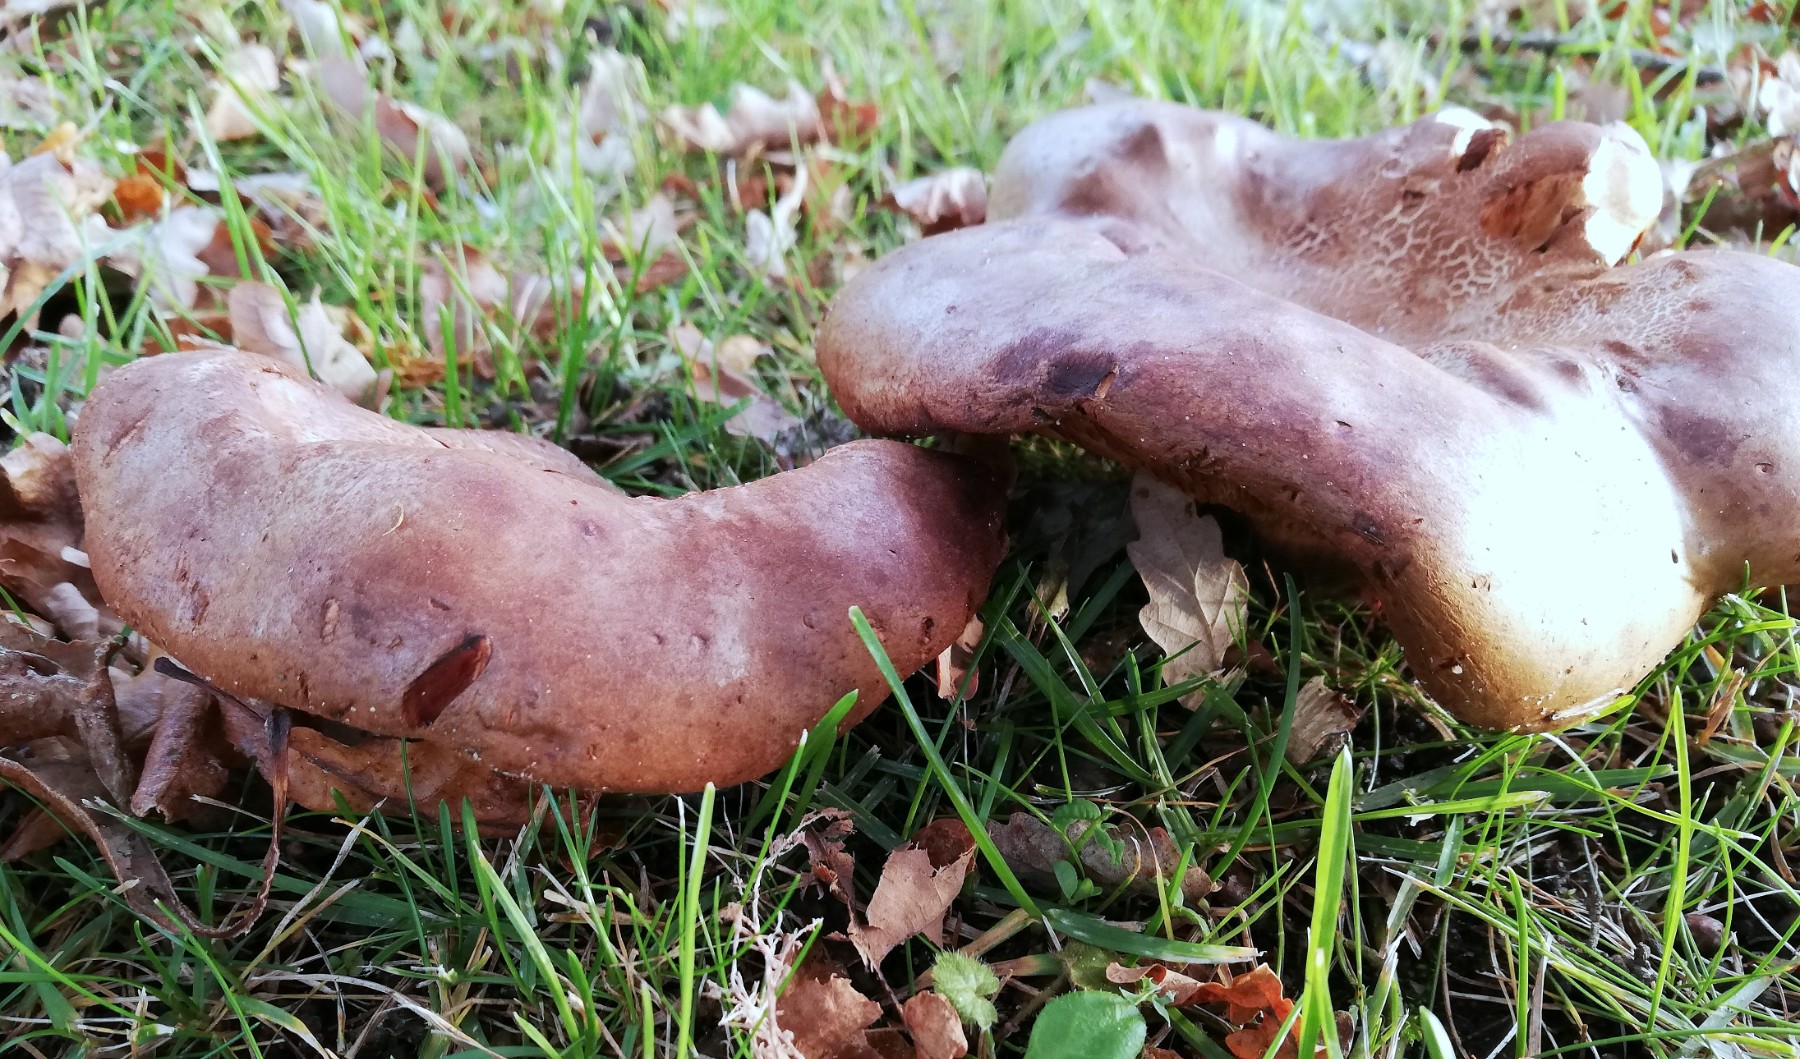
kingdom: Fungi
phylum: Basidiomycota
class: Agaricomycetes
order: Boletales
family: Paxillaceae
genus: Paxillus
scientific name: Paxillus
